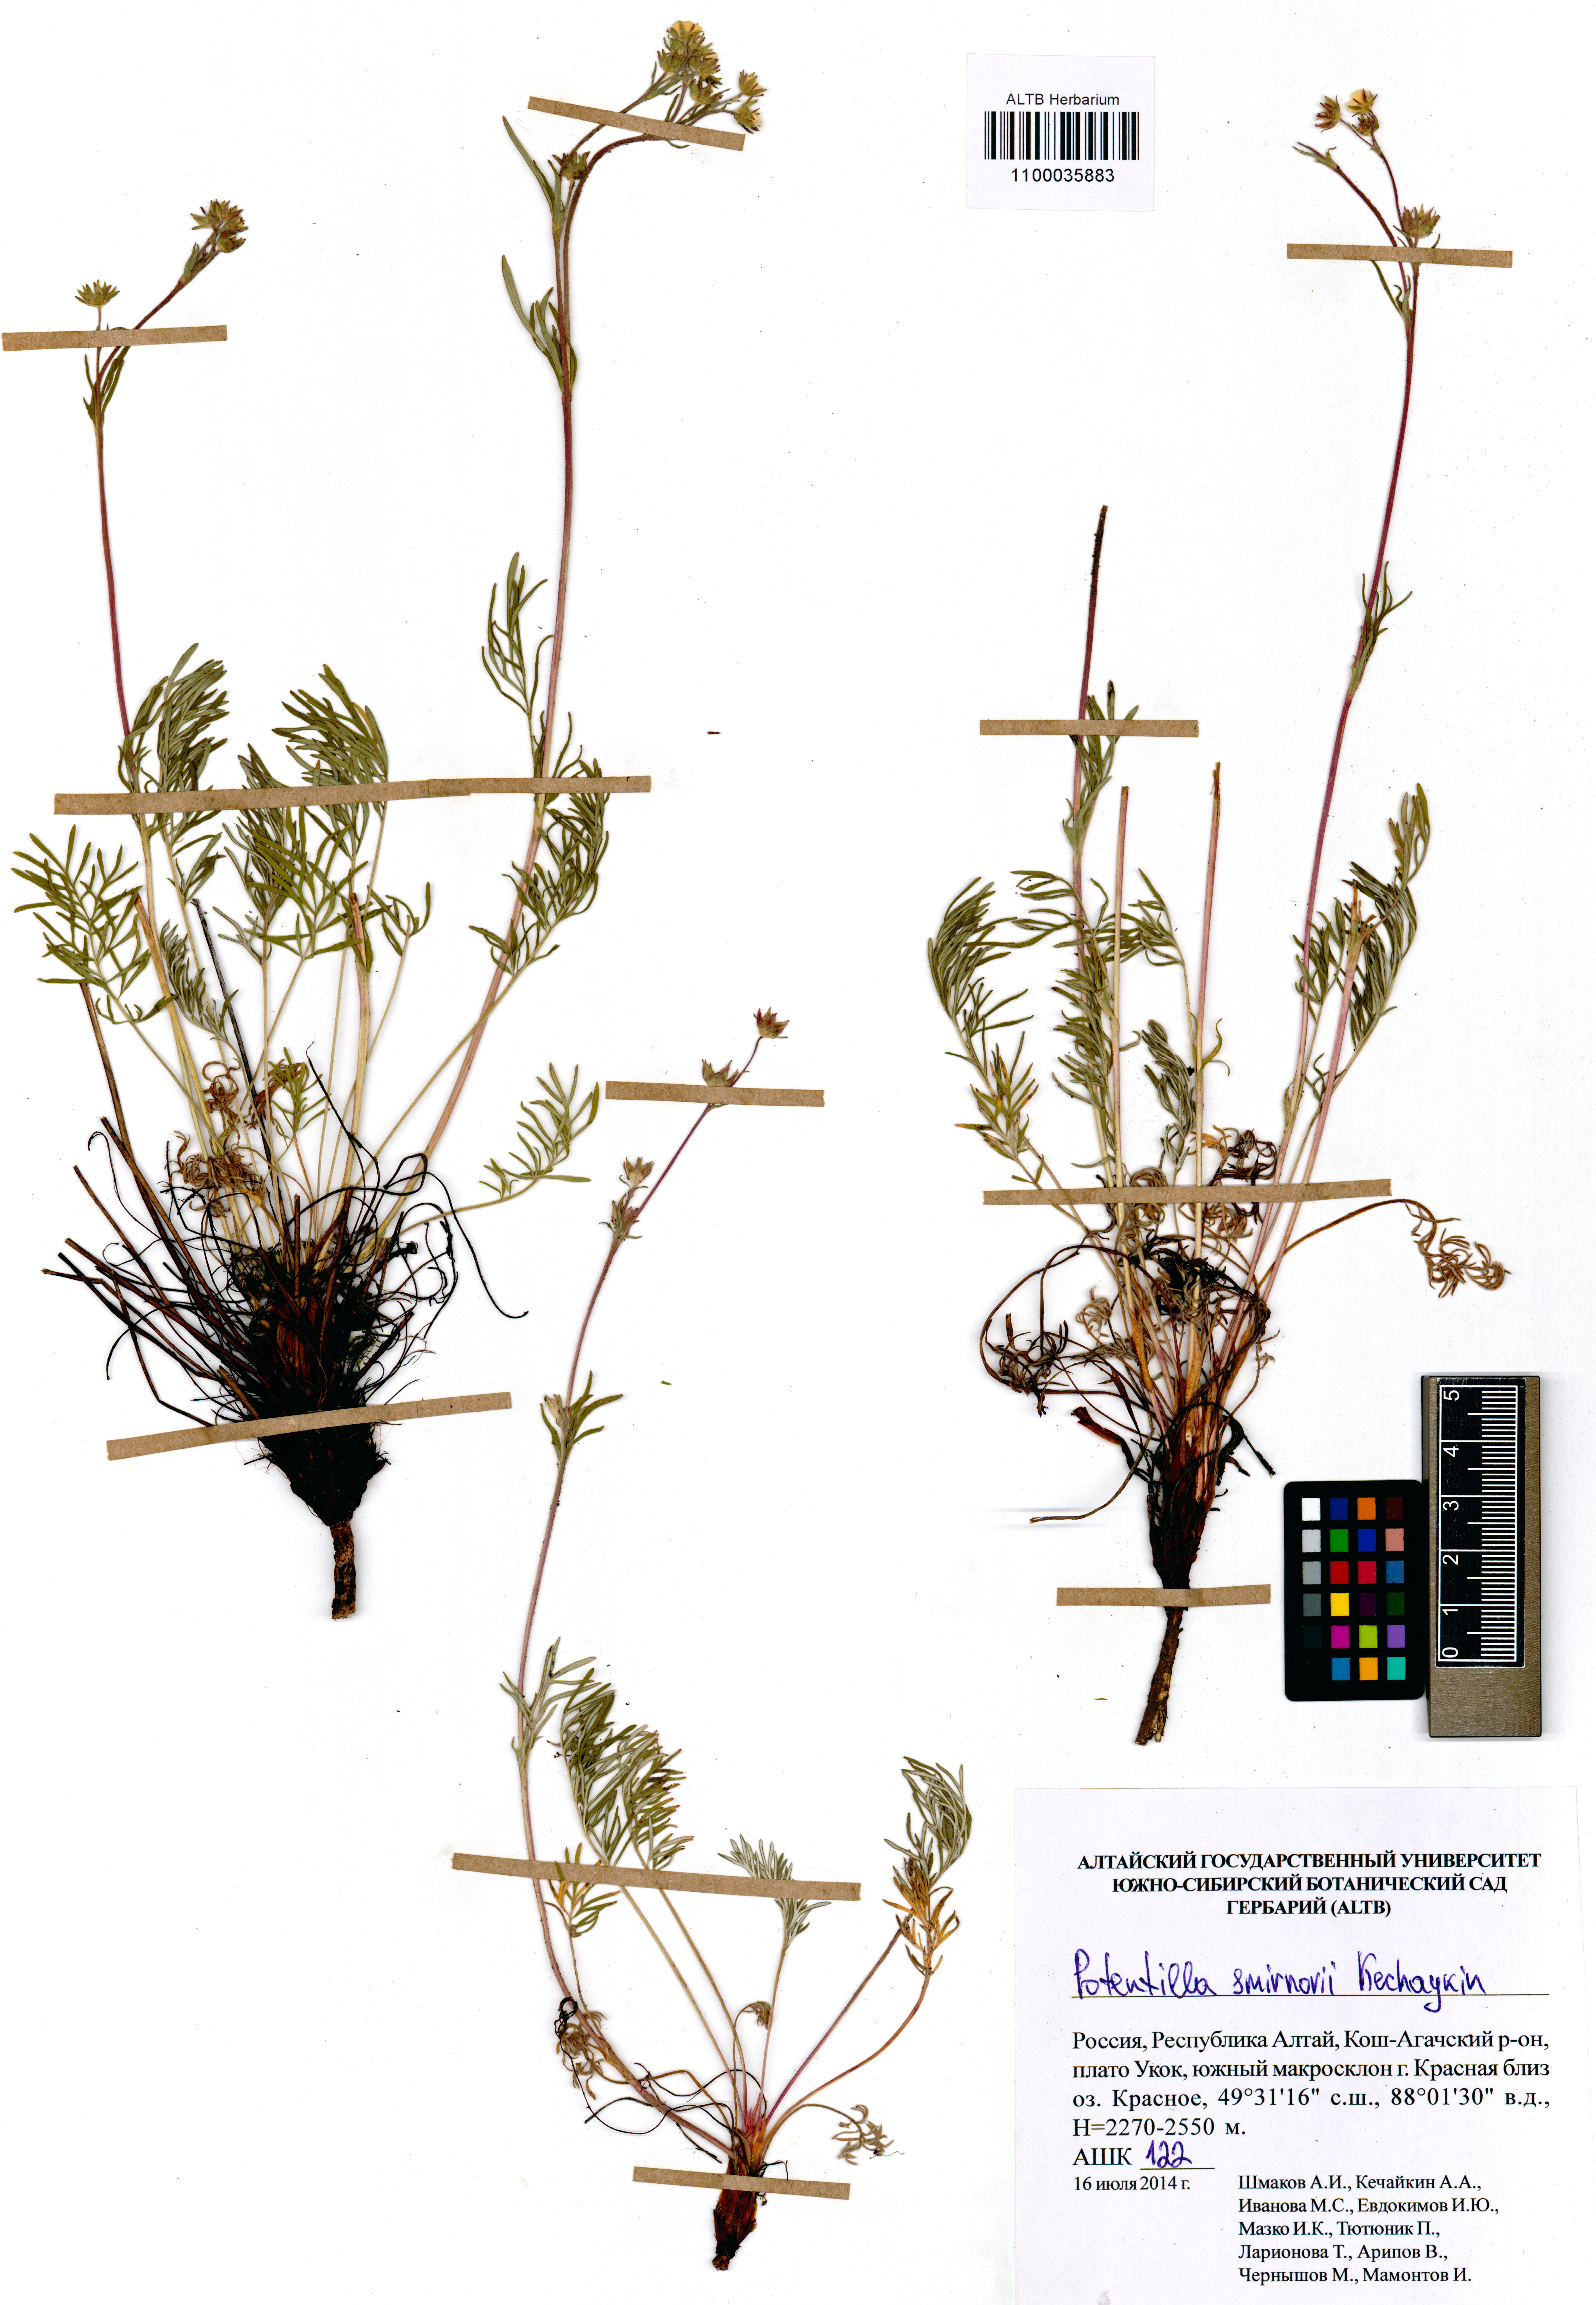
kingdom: Plantae
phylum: Tracheophyta
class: Magnoliopsida
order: Rosales
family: Rosaceae
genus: Potentilla
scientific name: Potentilla smirnovii
